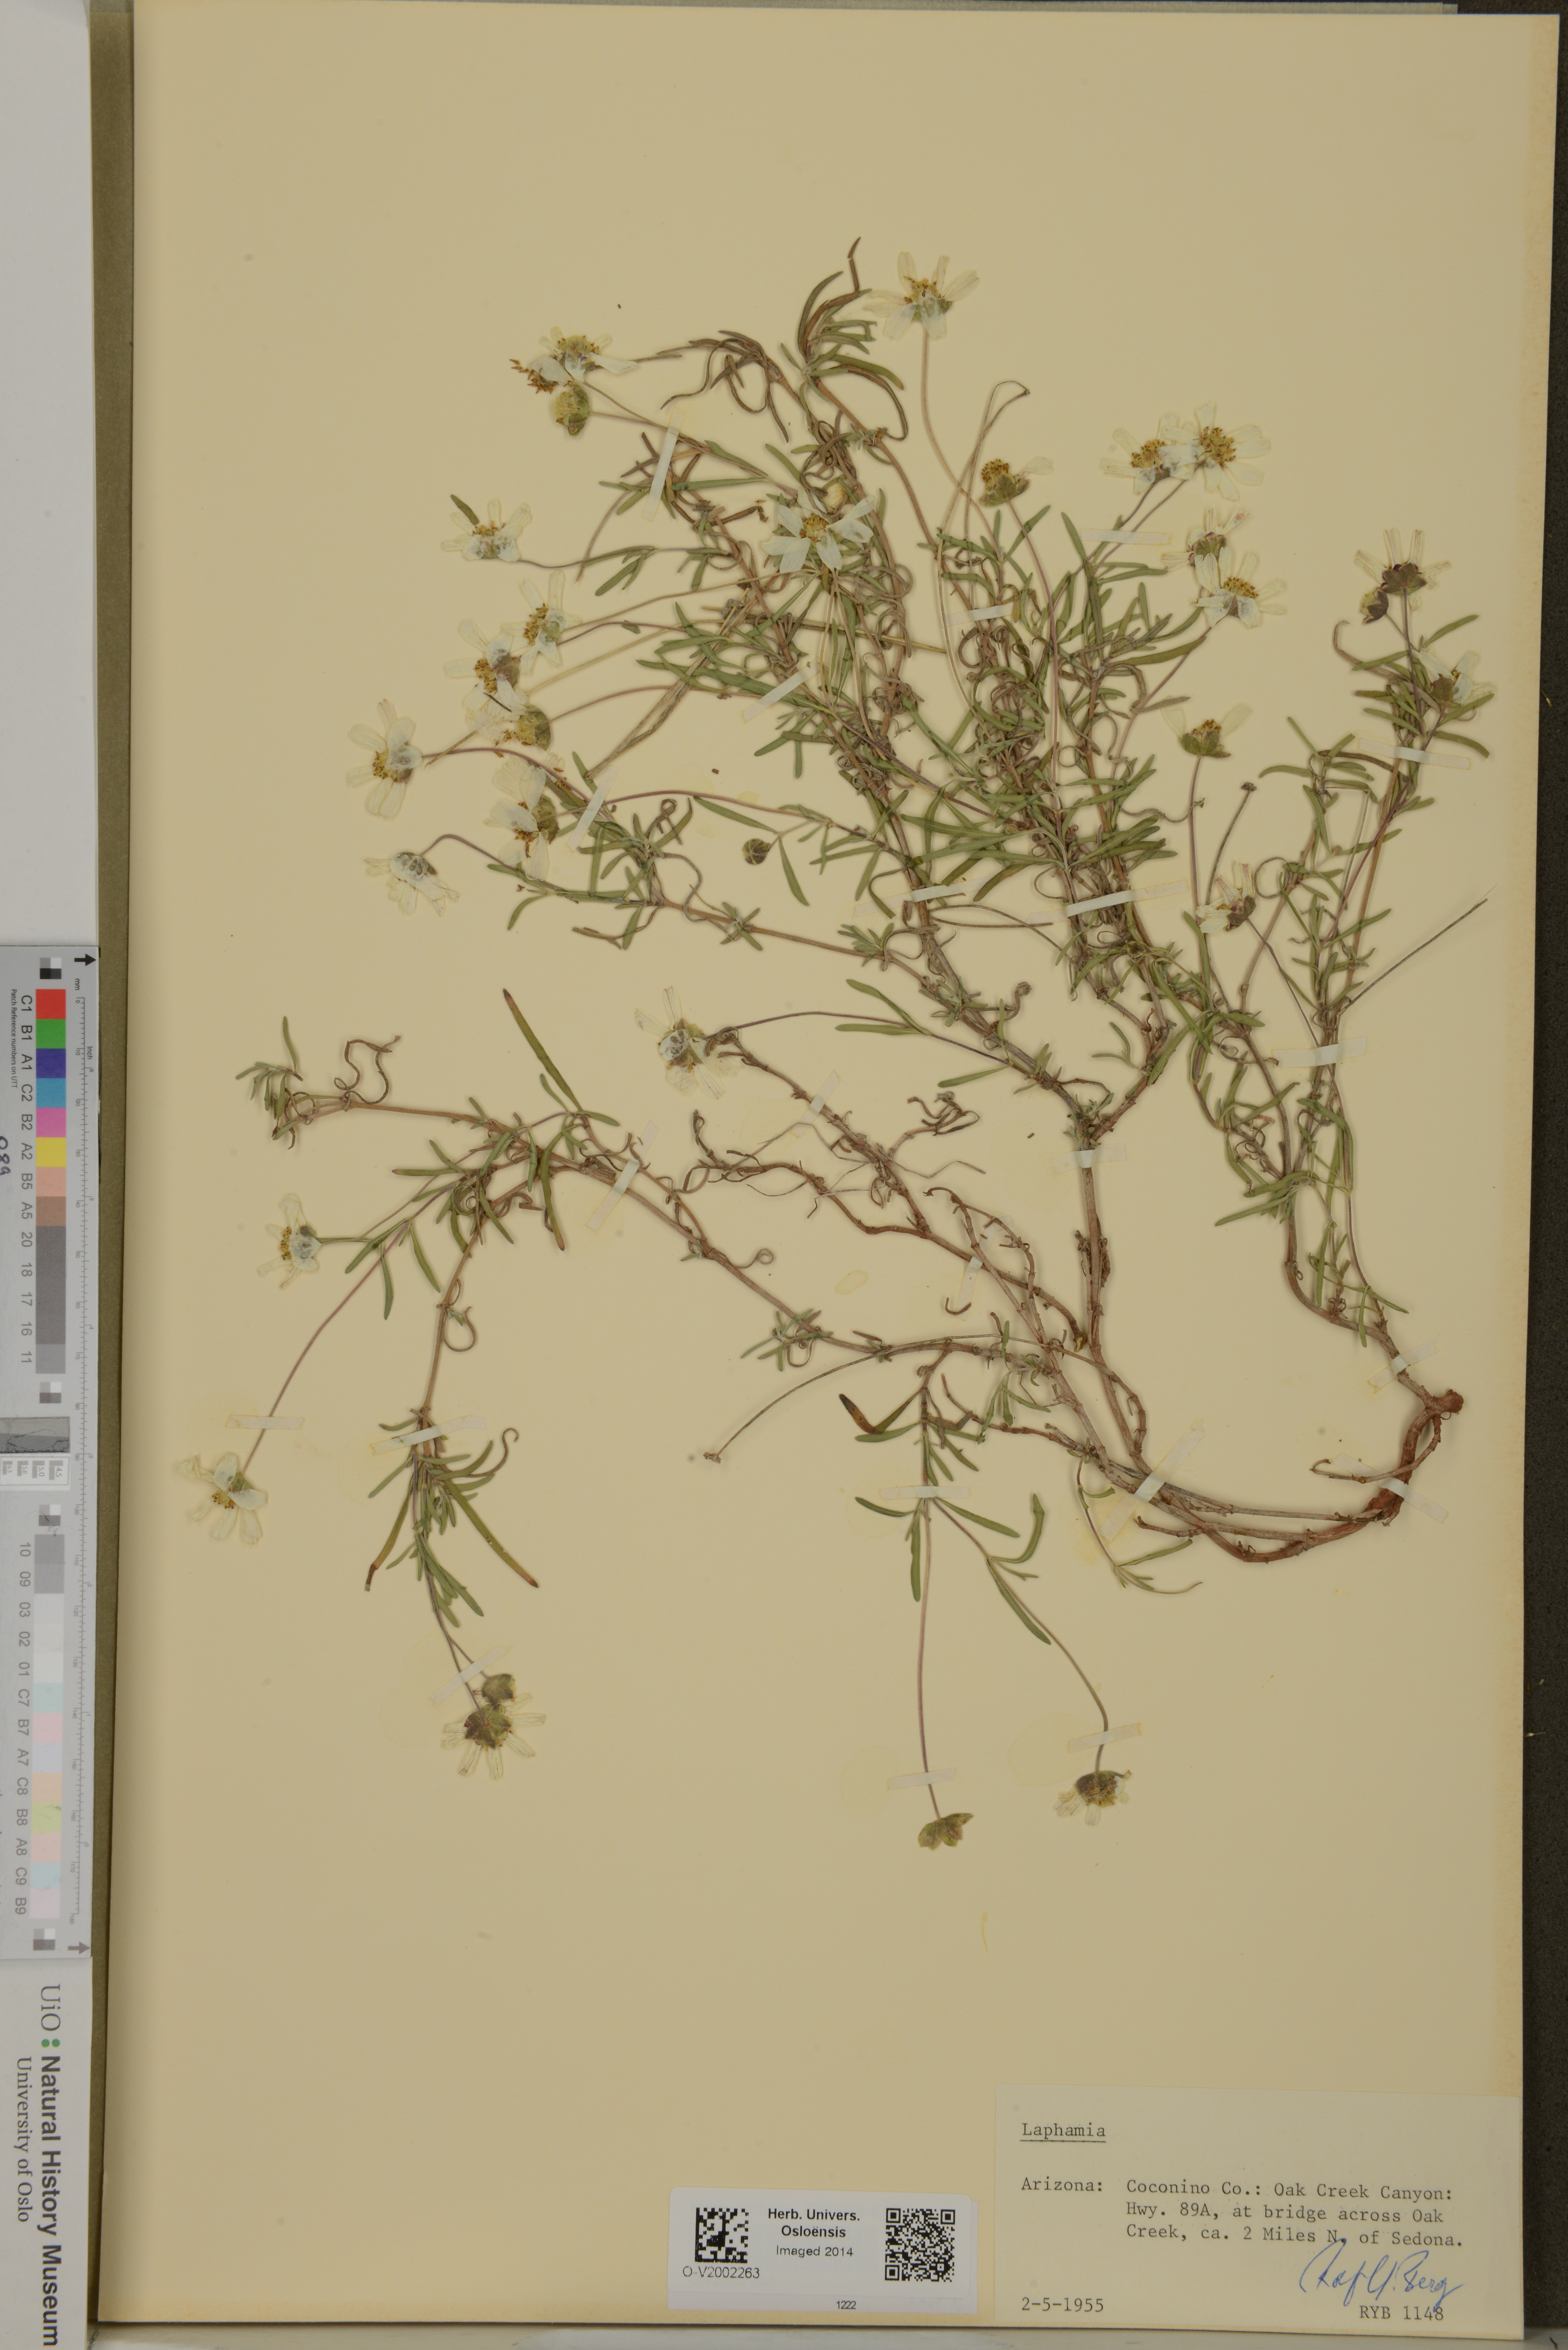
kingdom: Plantae
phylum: Tracheophyta
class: Magnoliopsida
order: Asterales
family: Asteraceae
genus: Laphamia
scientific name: Laphamia
